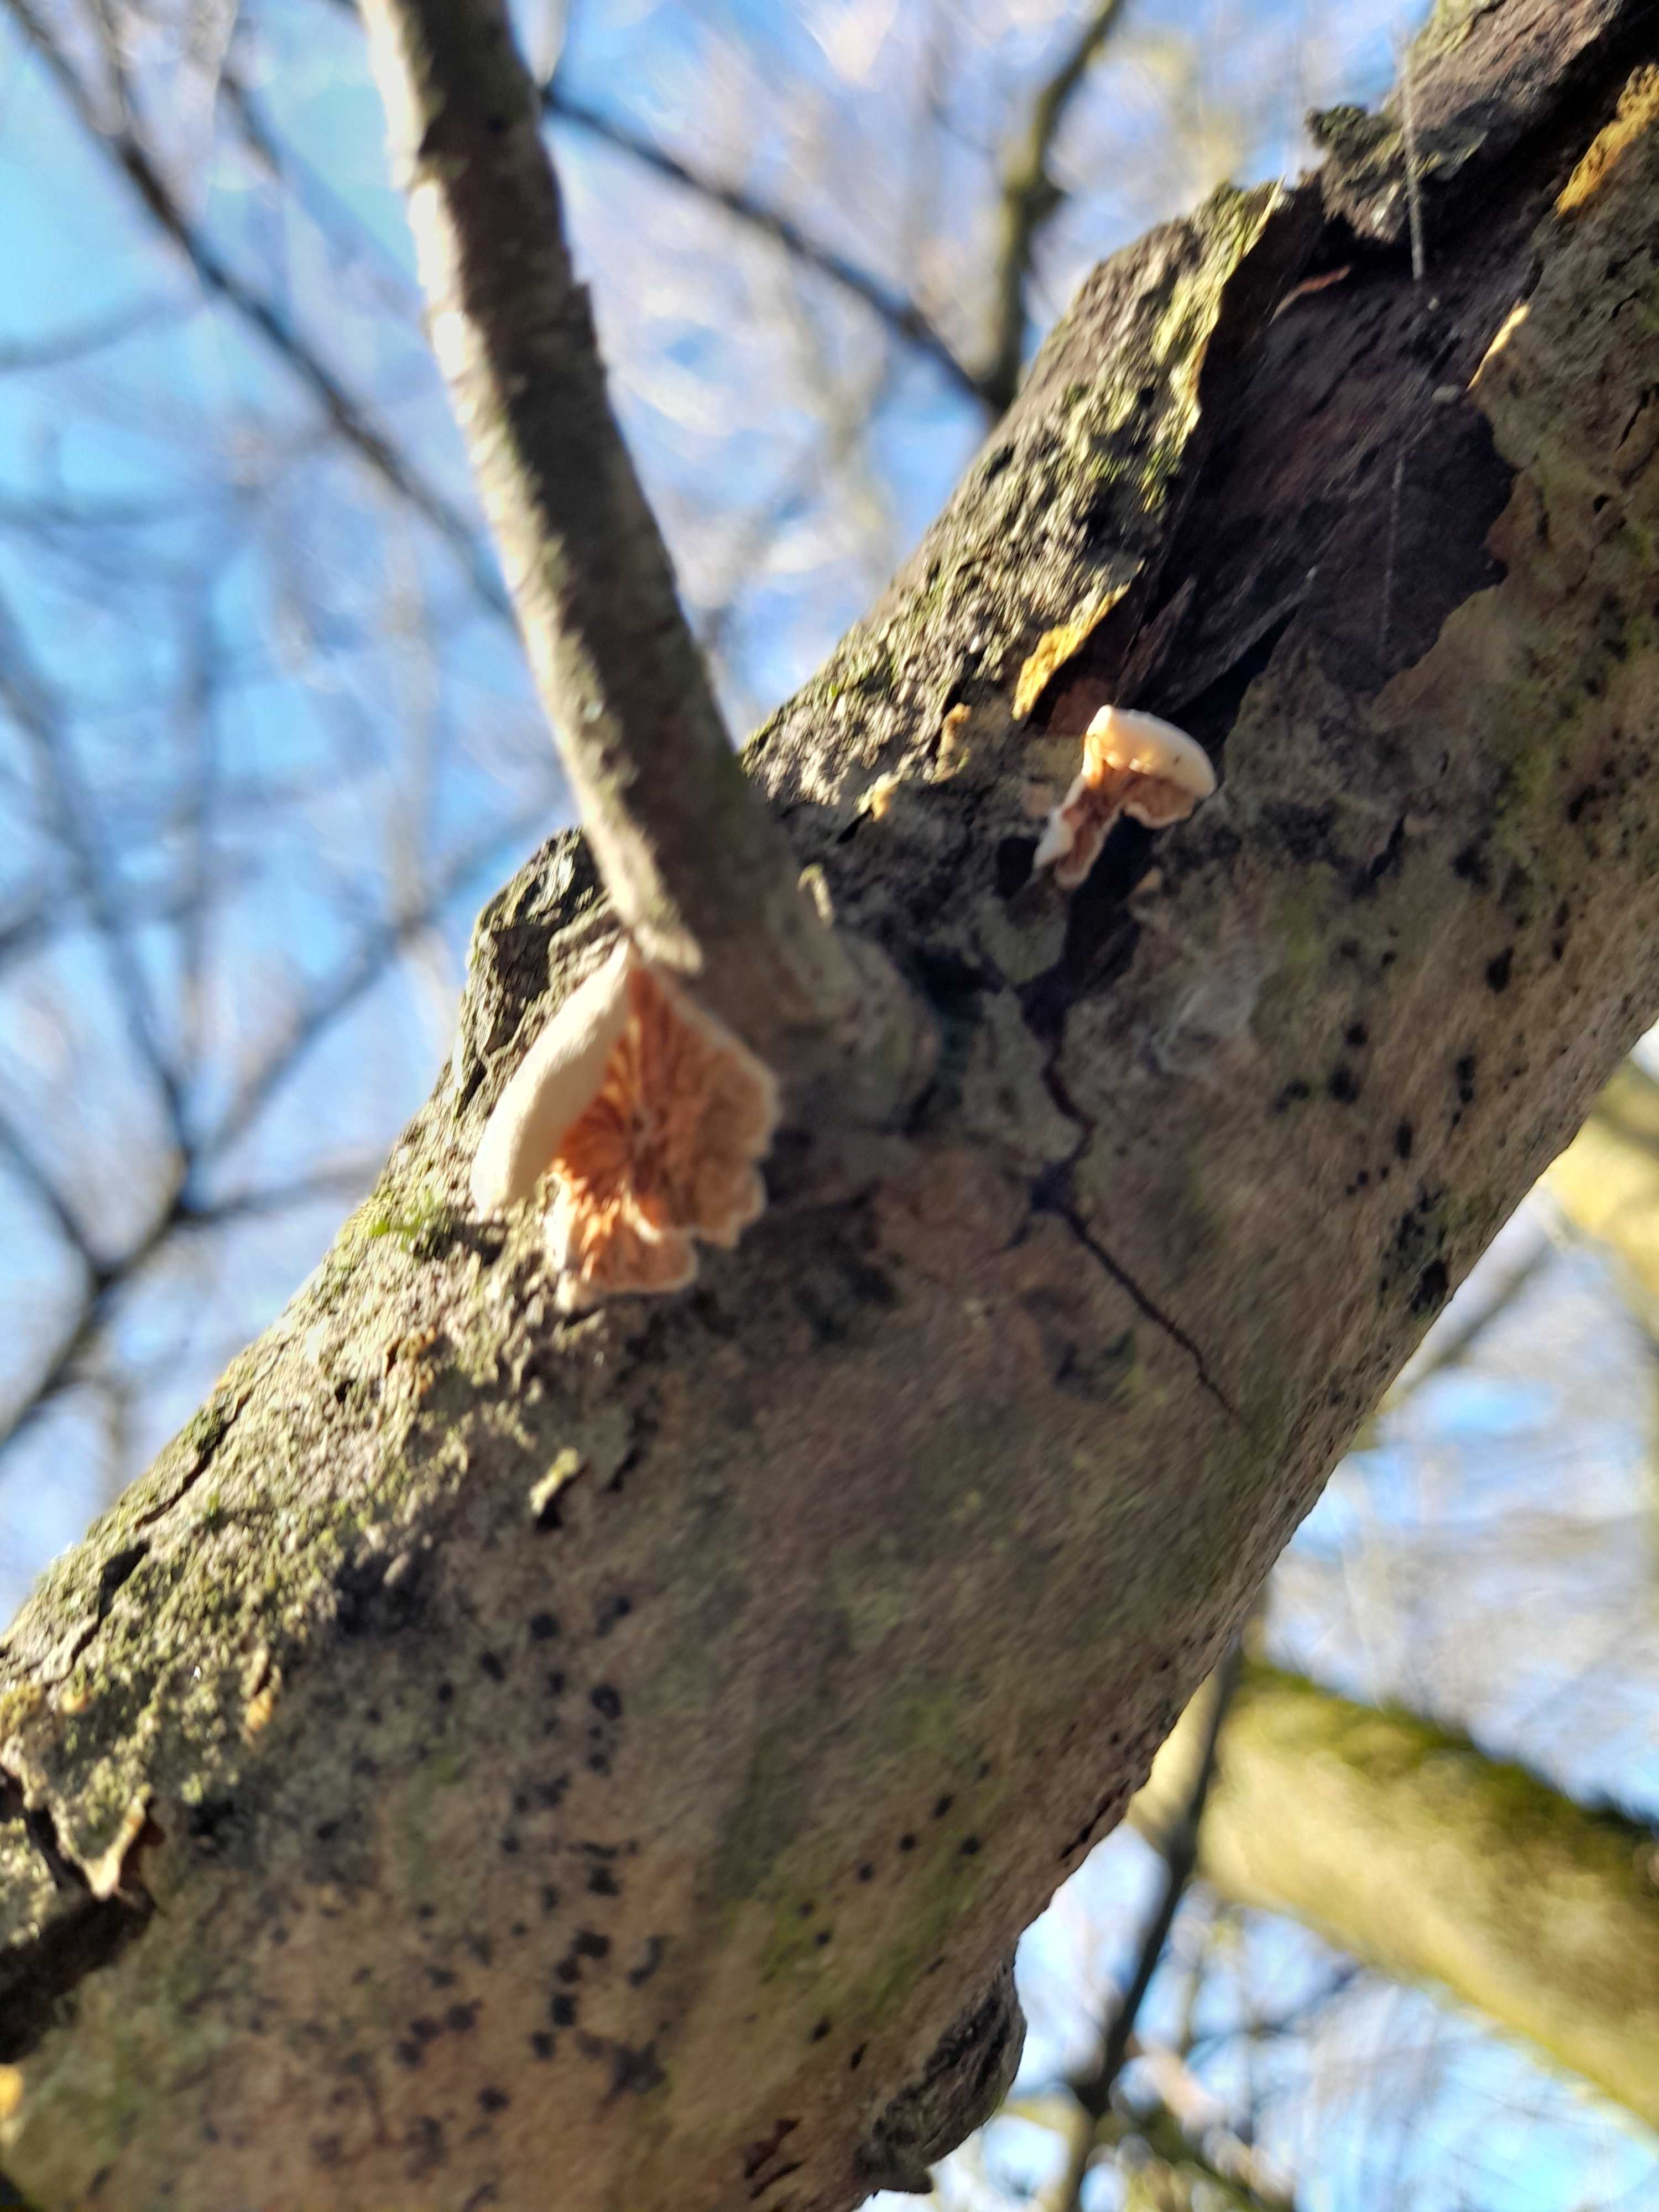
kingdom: Fungi
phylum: Basidiomycota
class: Agaricomycetes
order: Agaricales
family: Crepidotaceae
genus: Crepidotus
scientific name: Crepidotus
